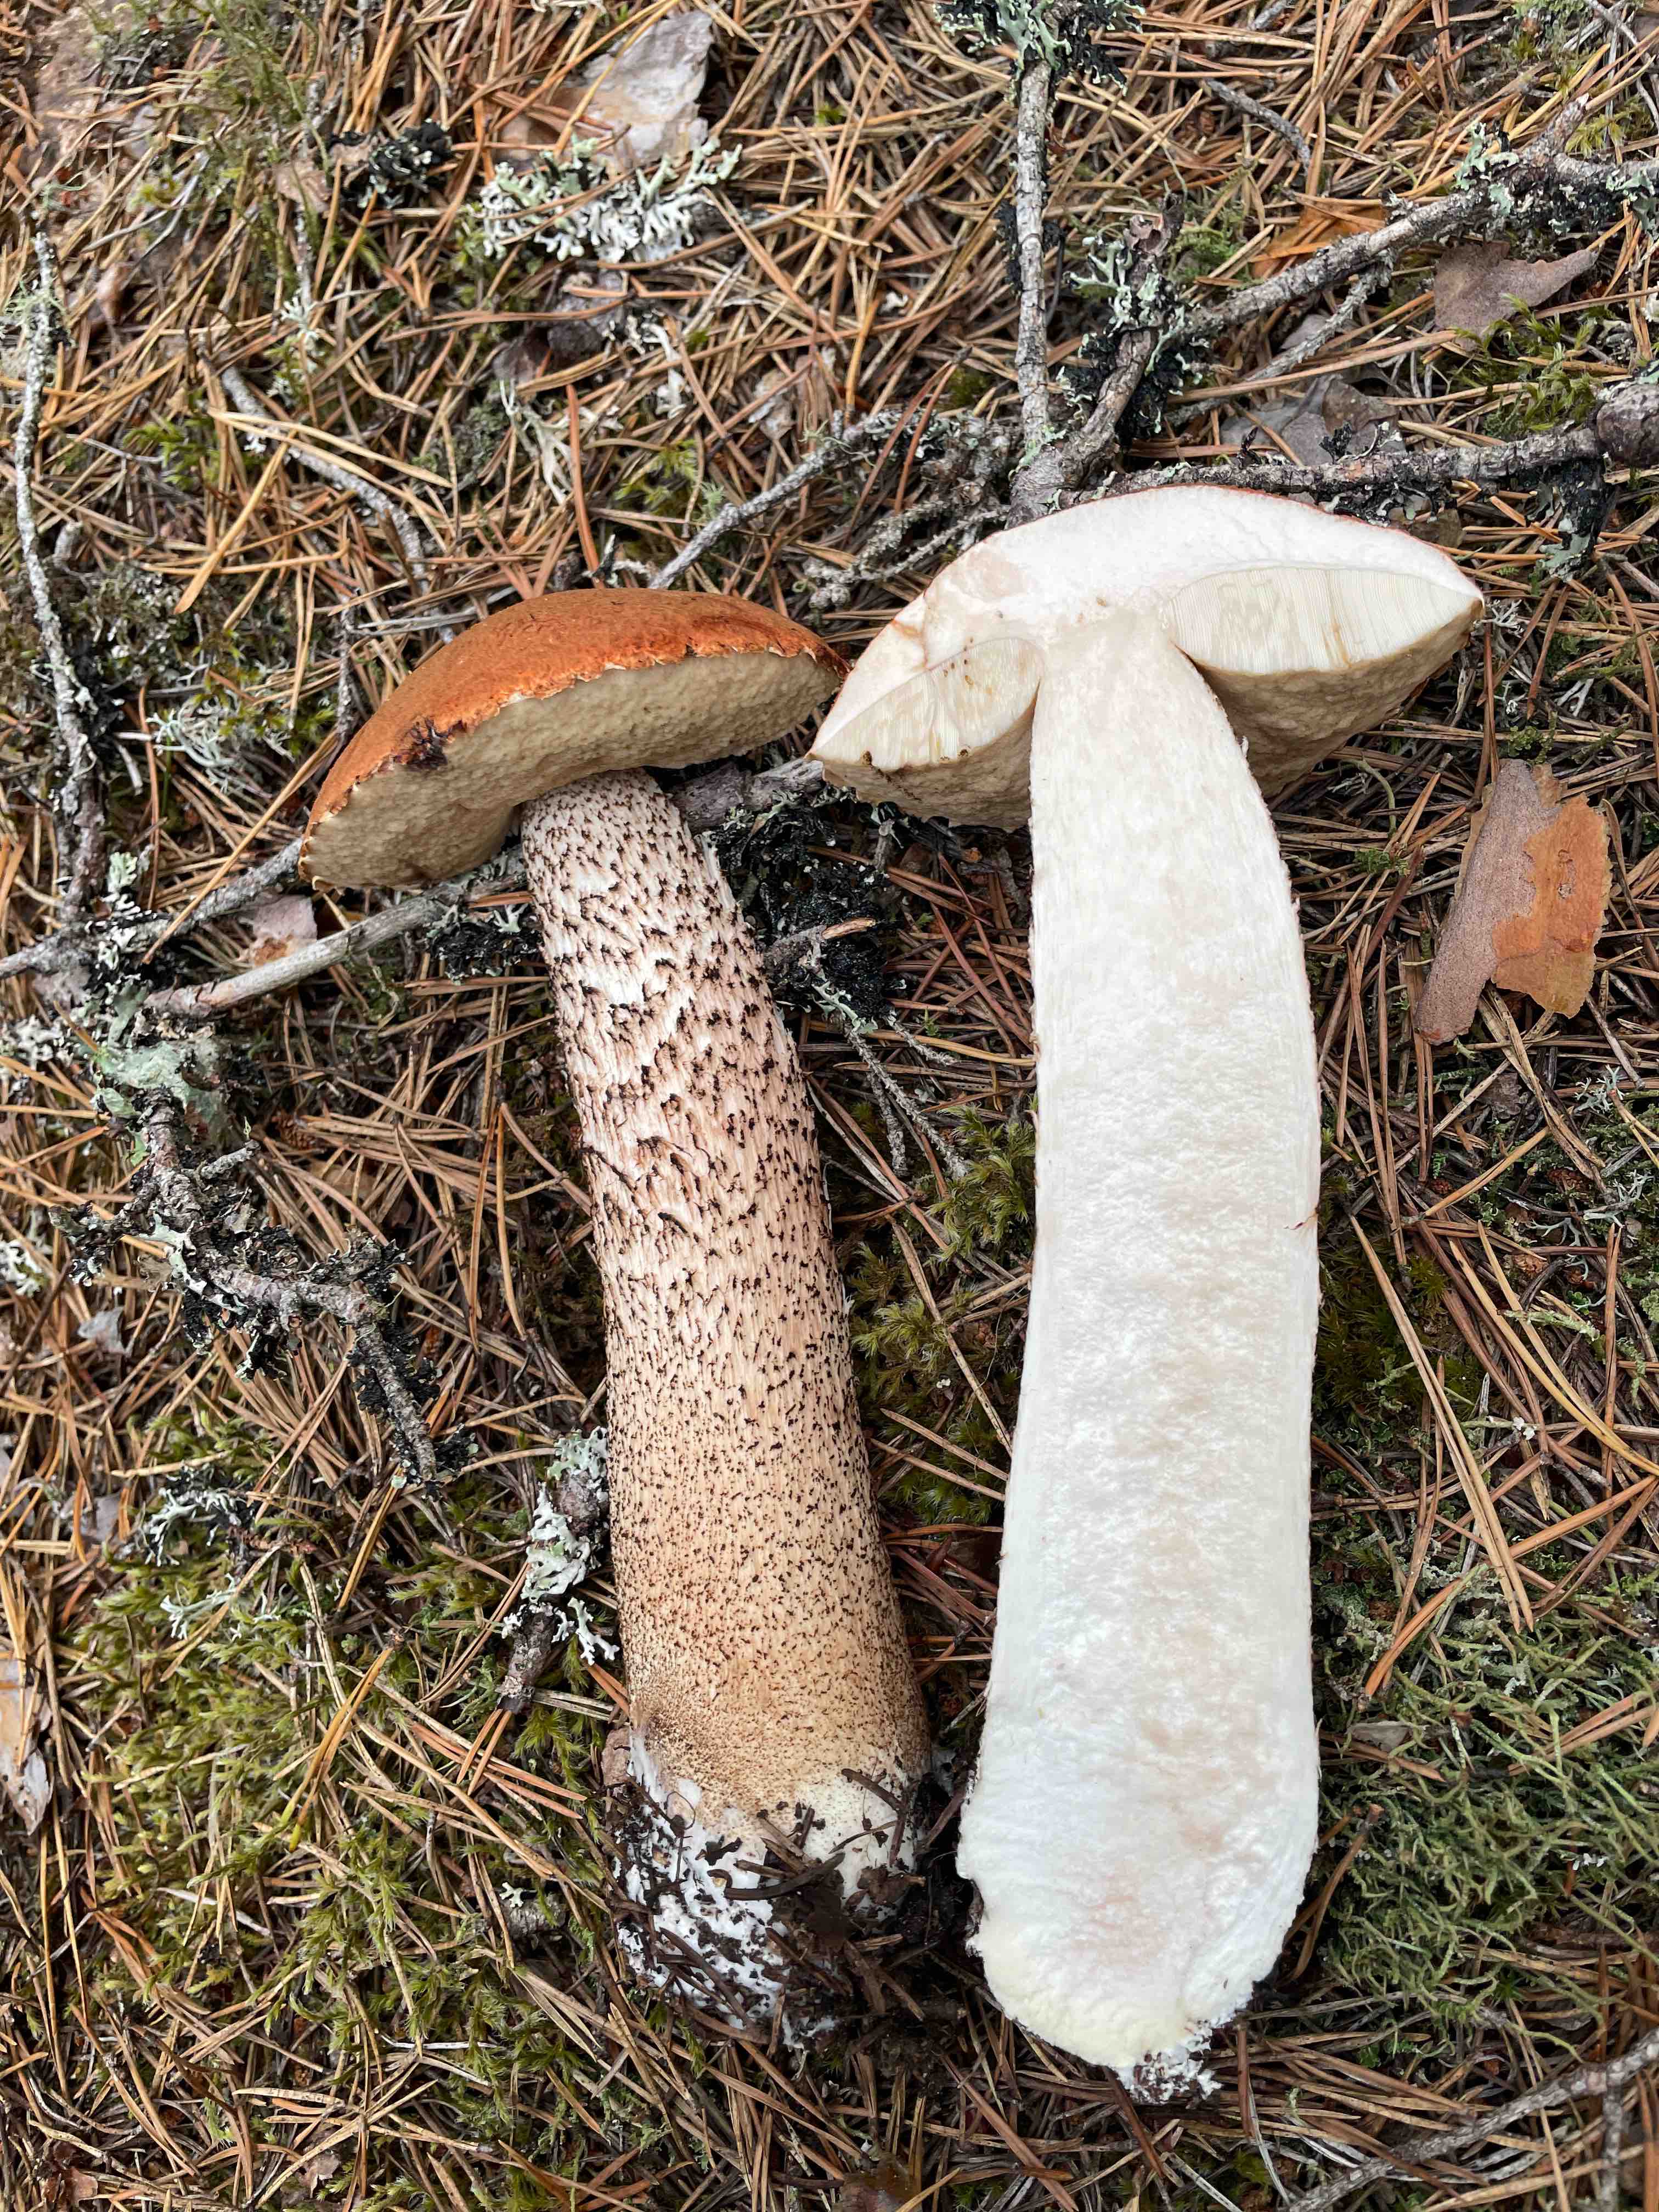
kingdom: Fungi
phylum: Basidiomycota
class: Agaricomycetes
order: Boletales
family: Boletaceae
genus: Leccinum
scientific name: Leccinum vulpinum
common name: fyrre-skælrørhat
